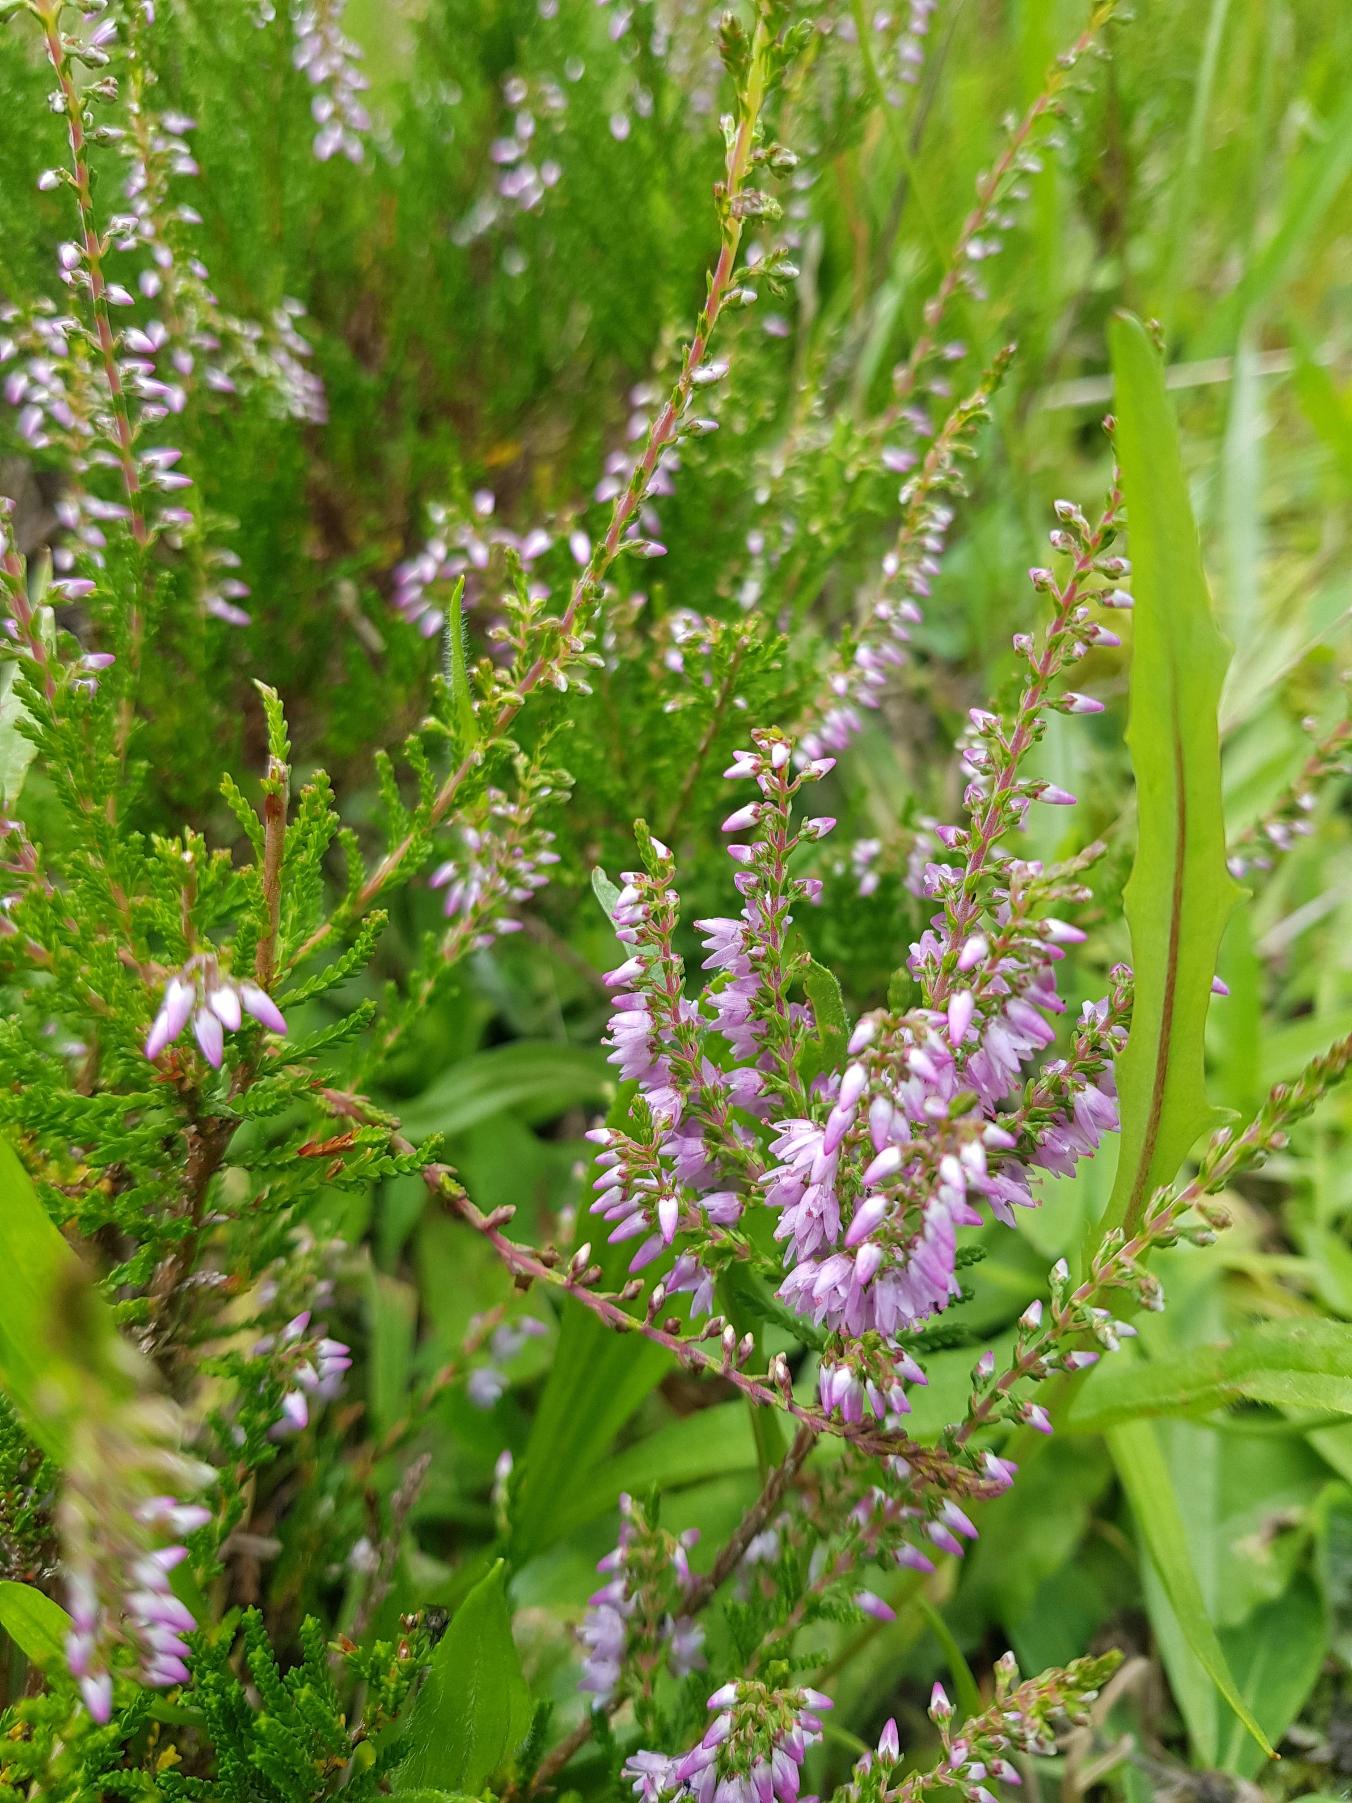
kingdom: Plantae
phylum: Tracheophyta
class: Magnoliopsida
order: Ericales
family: Ericaceae
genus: Calluna
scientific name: Calluna vulgaris
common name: Hedelyng
